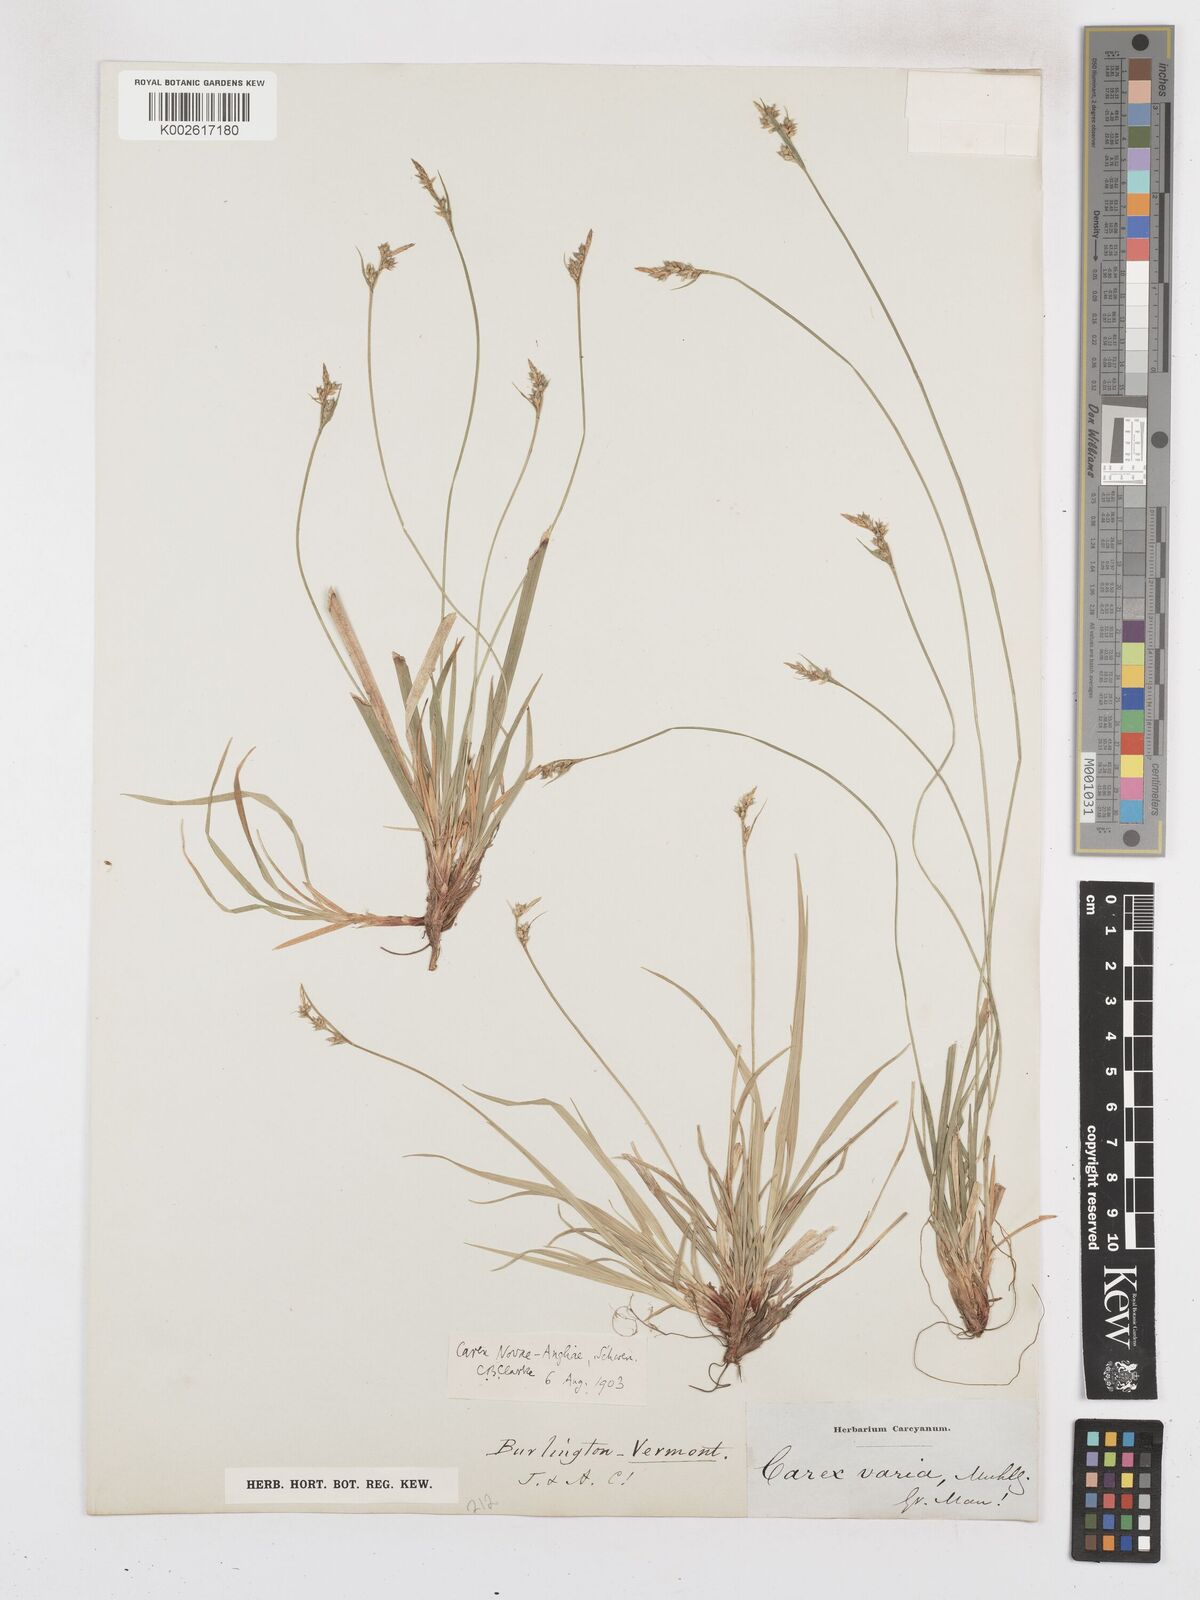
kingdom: Plantae
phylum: Tracheophyta
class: Liliopsida
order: Poales
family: Cyperaceae
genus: Carex
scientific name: Carex novae-angliae
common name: New england sedge
